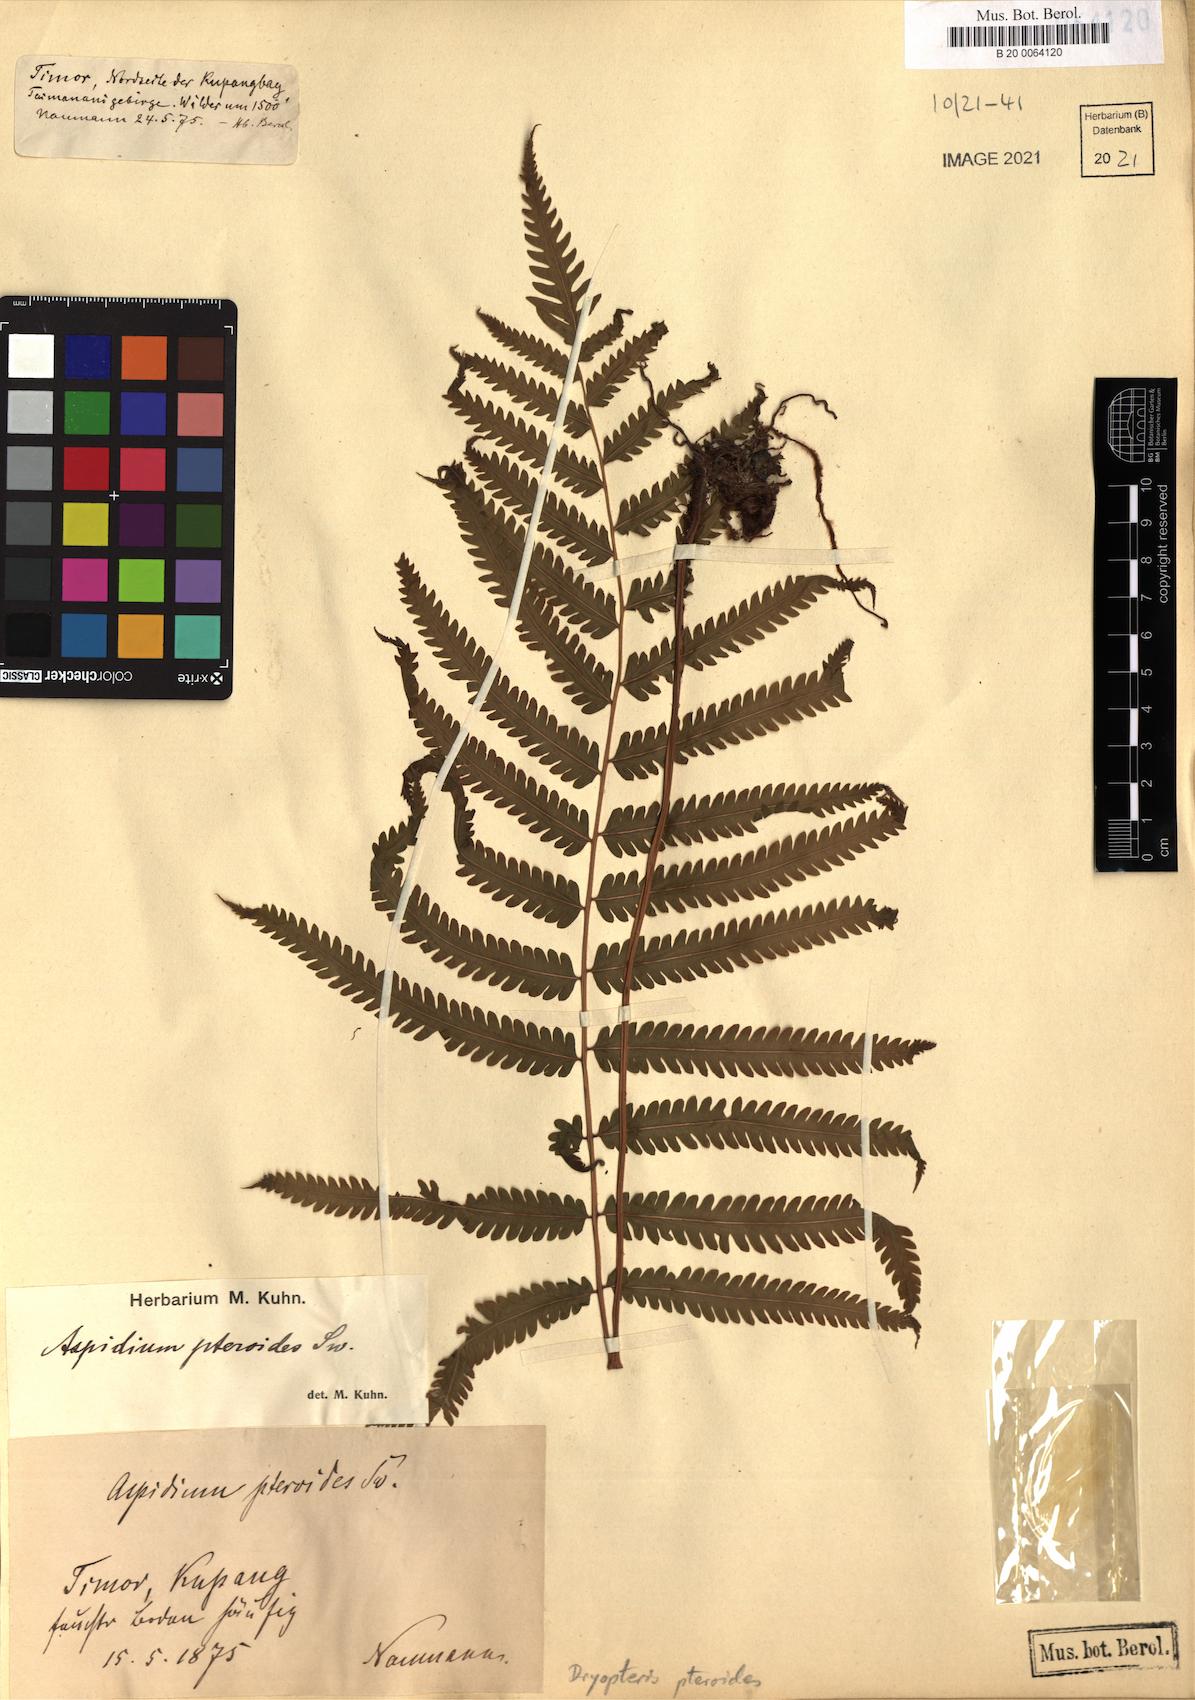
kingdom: Plantae
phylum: Tracheophyta
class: Polypodiopsida
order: Polypodiales
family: Tectariaceae
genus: Tectaria
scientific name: Tectaria paradoxa
